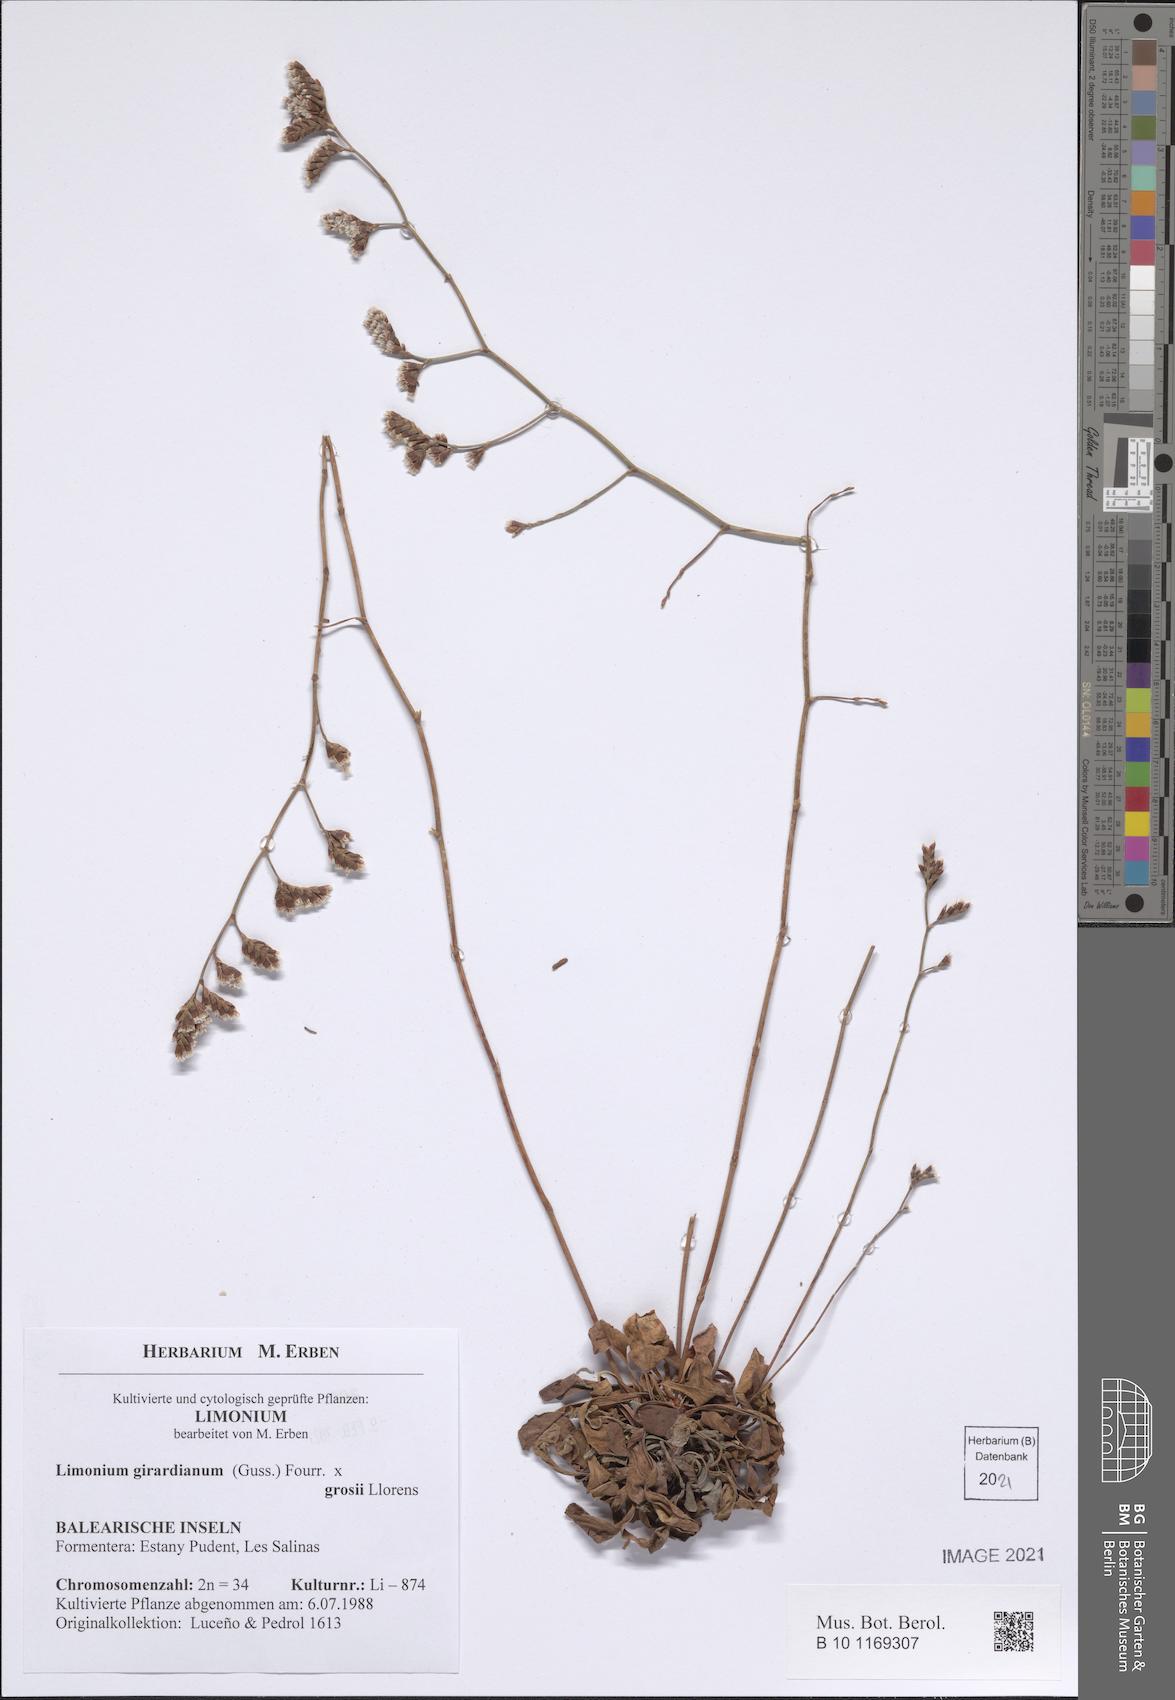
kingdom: Plantae
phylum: Tracheophyta
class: Magnoliopsida
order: Caryophyllales
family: Plumbaginaceae
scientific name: Plumbaginaceae
